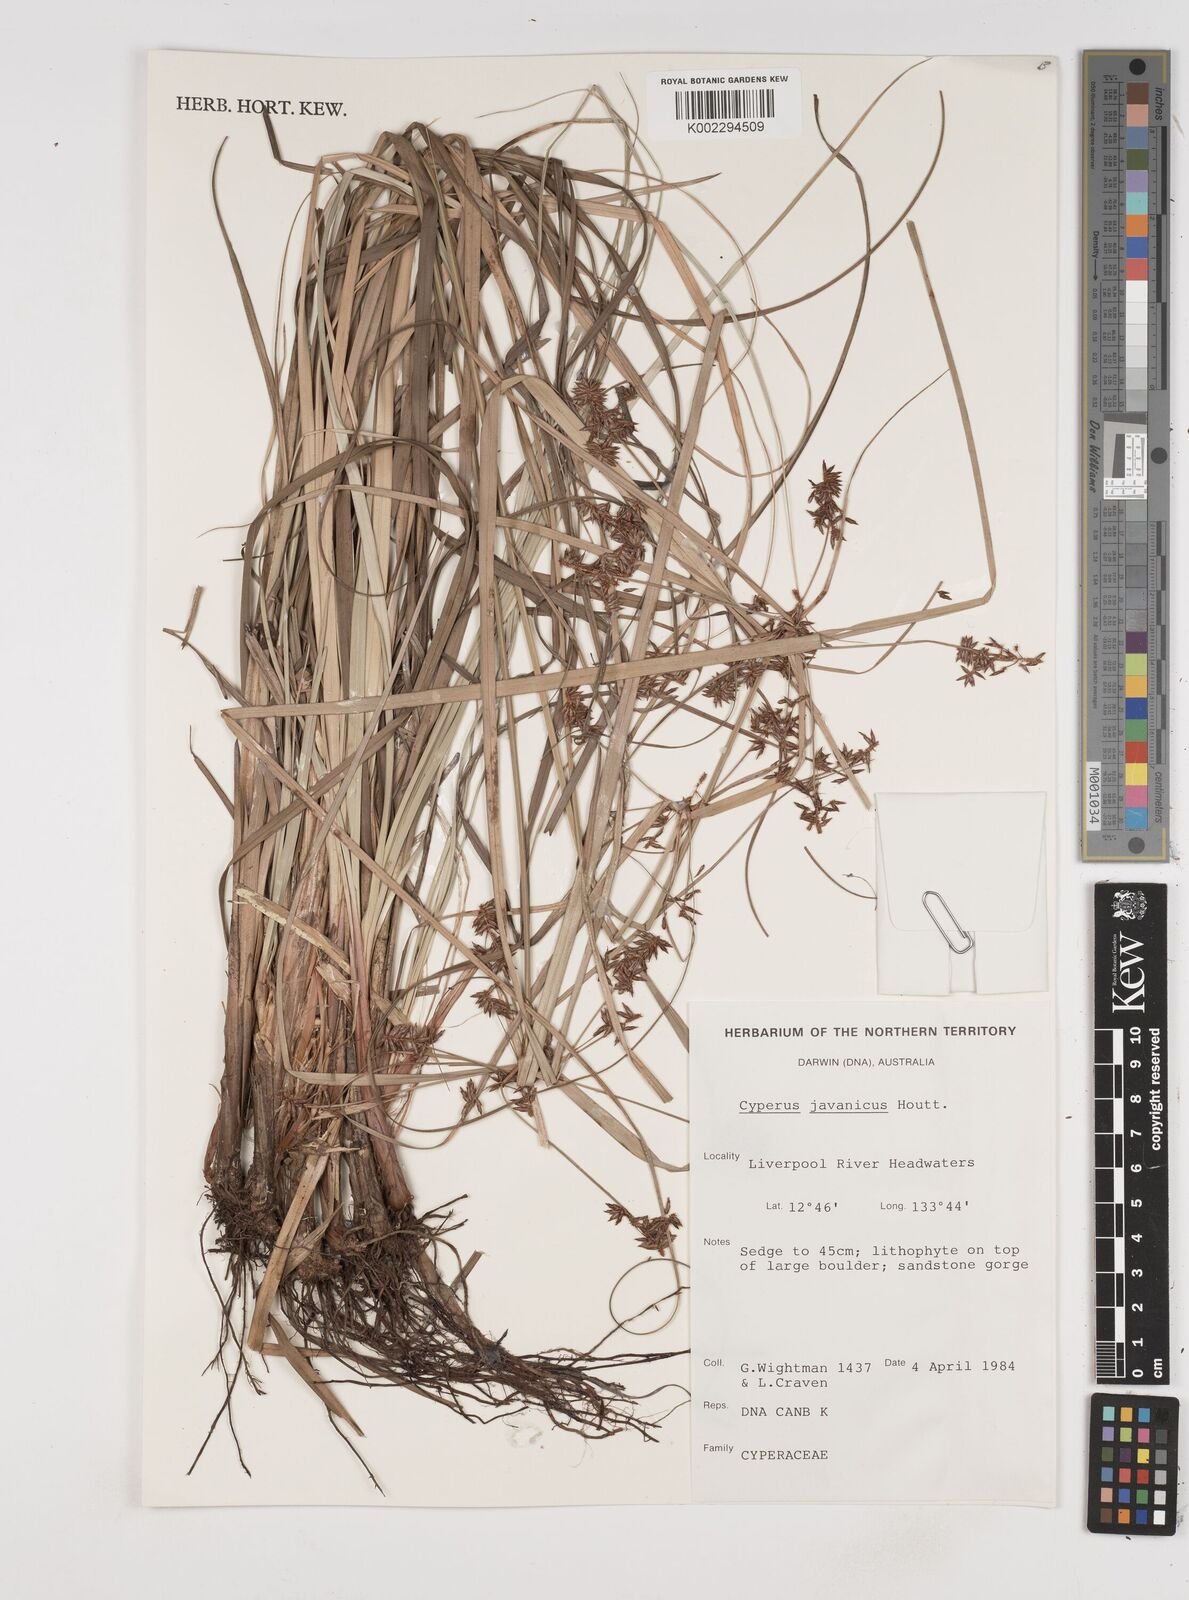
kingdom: Plantae
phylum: Tracheophyta
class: Liliopsida
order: Poales
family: Cyperaceae
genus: Cyperus
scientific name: Cyperus javanicus
